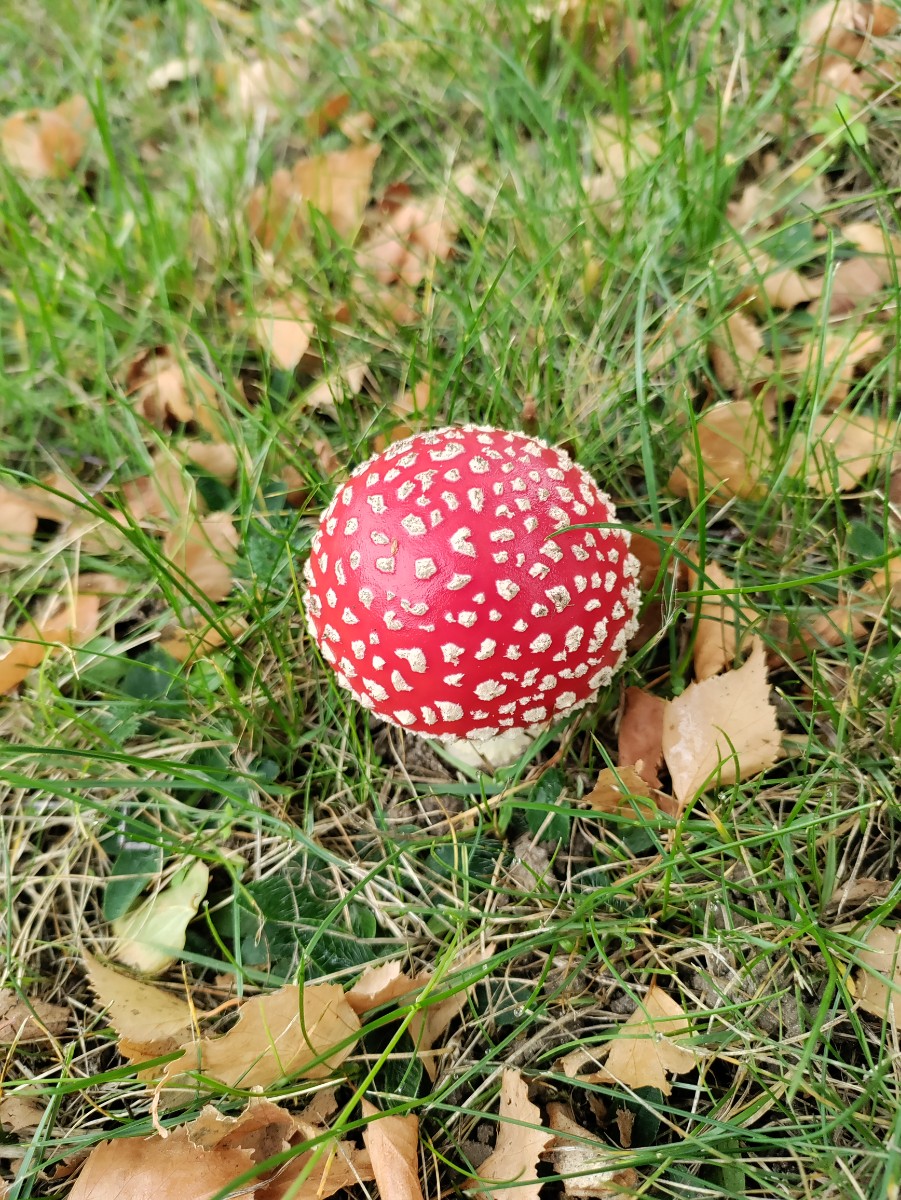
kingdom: Fungi
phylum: Basidiomycota
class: Agaricomycetes
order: Agaricales
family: Amanitaceae
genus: Amanita
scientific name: Amanita muscaria
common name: rød fluesvamp
